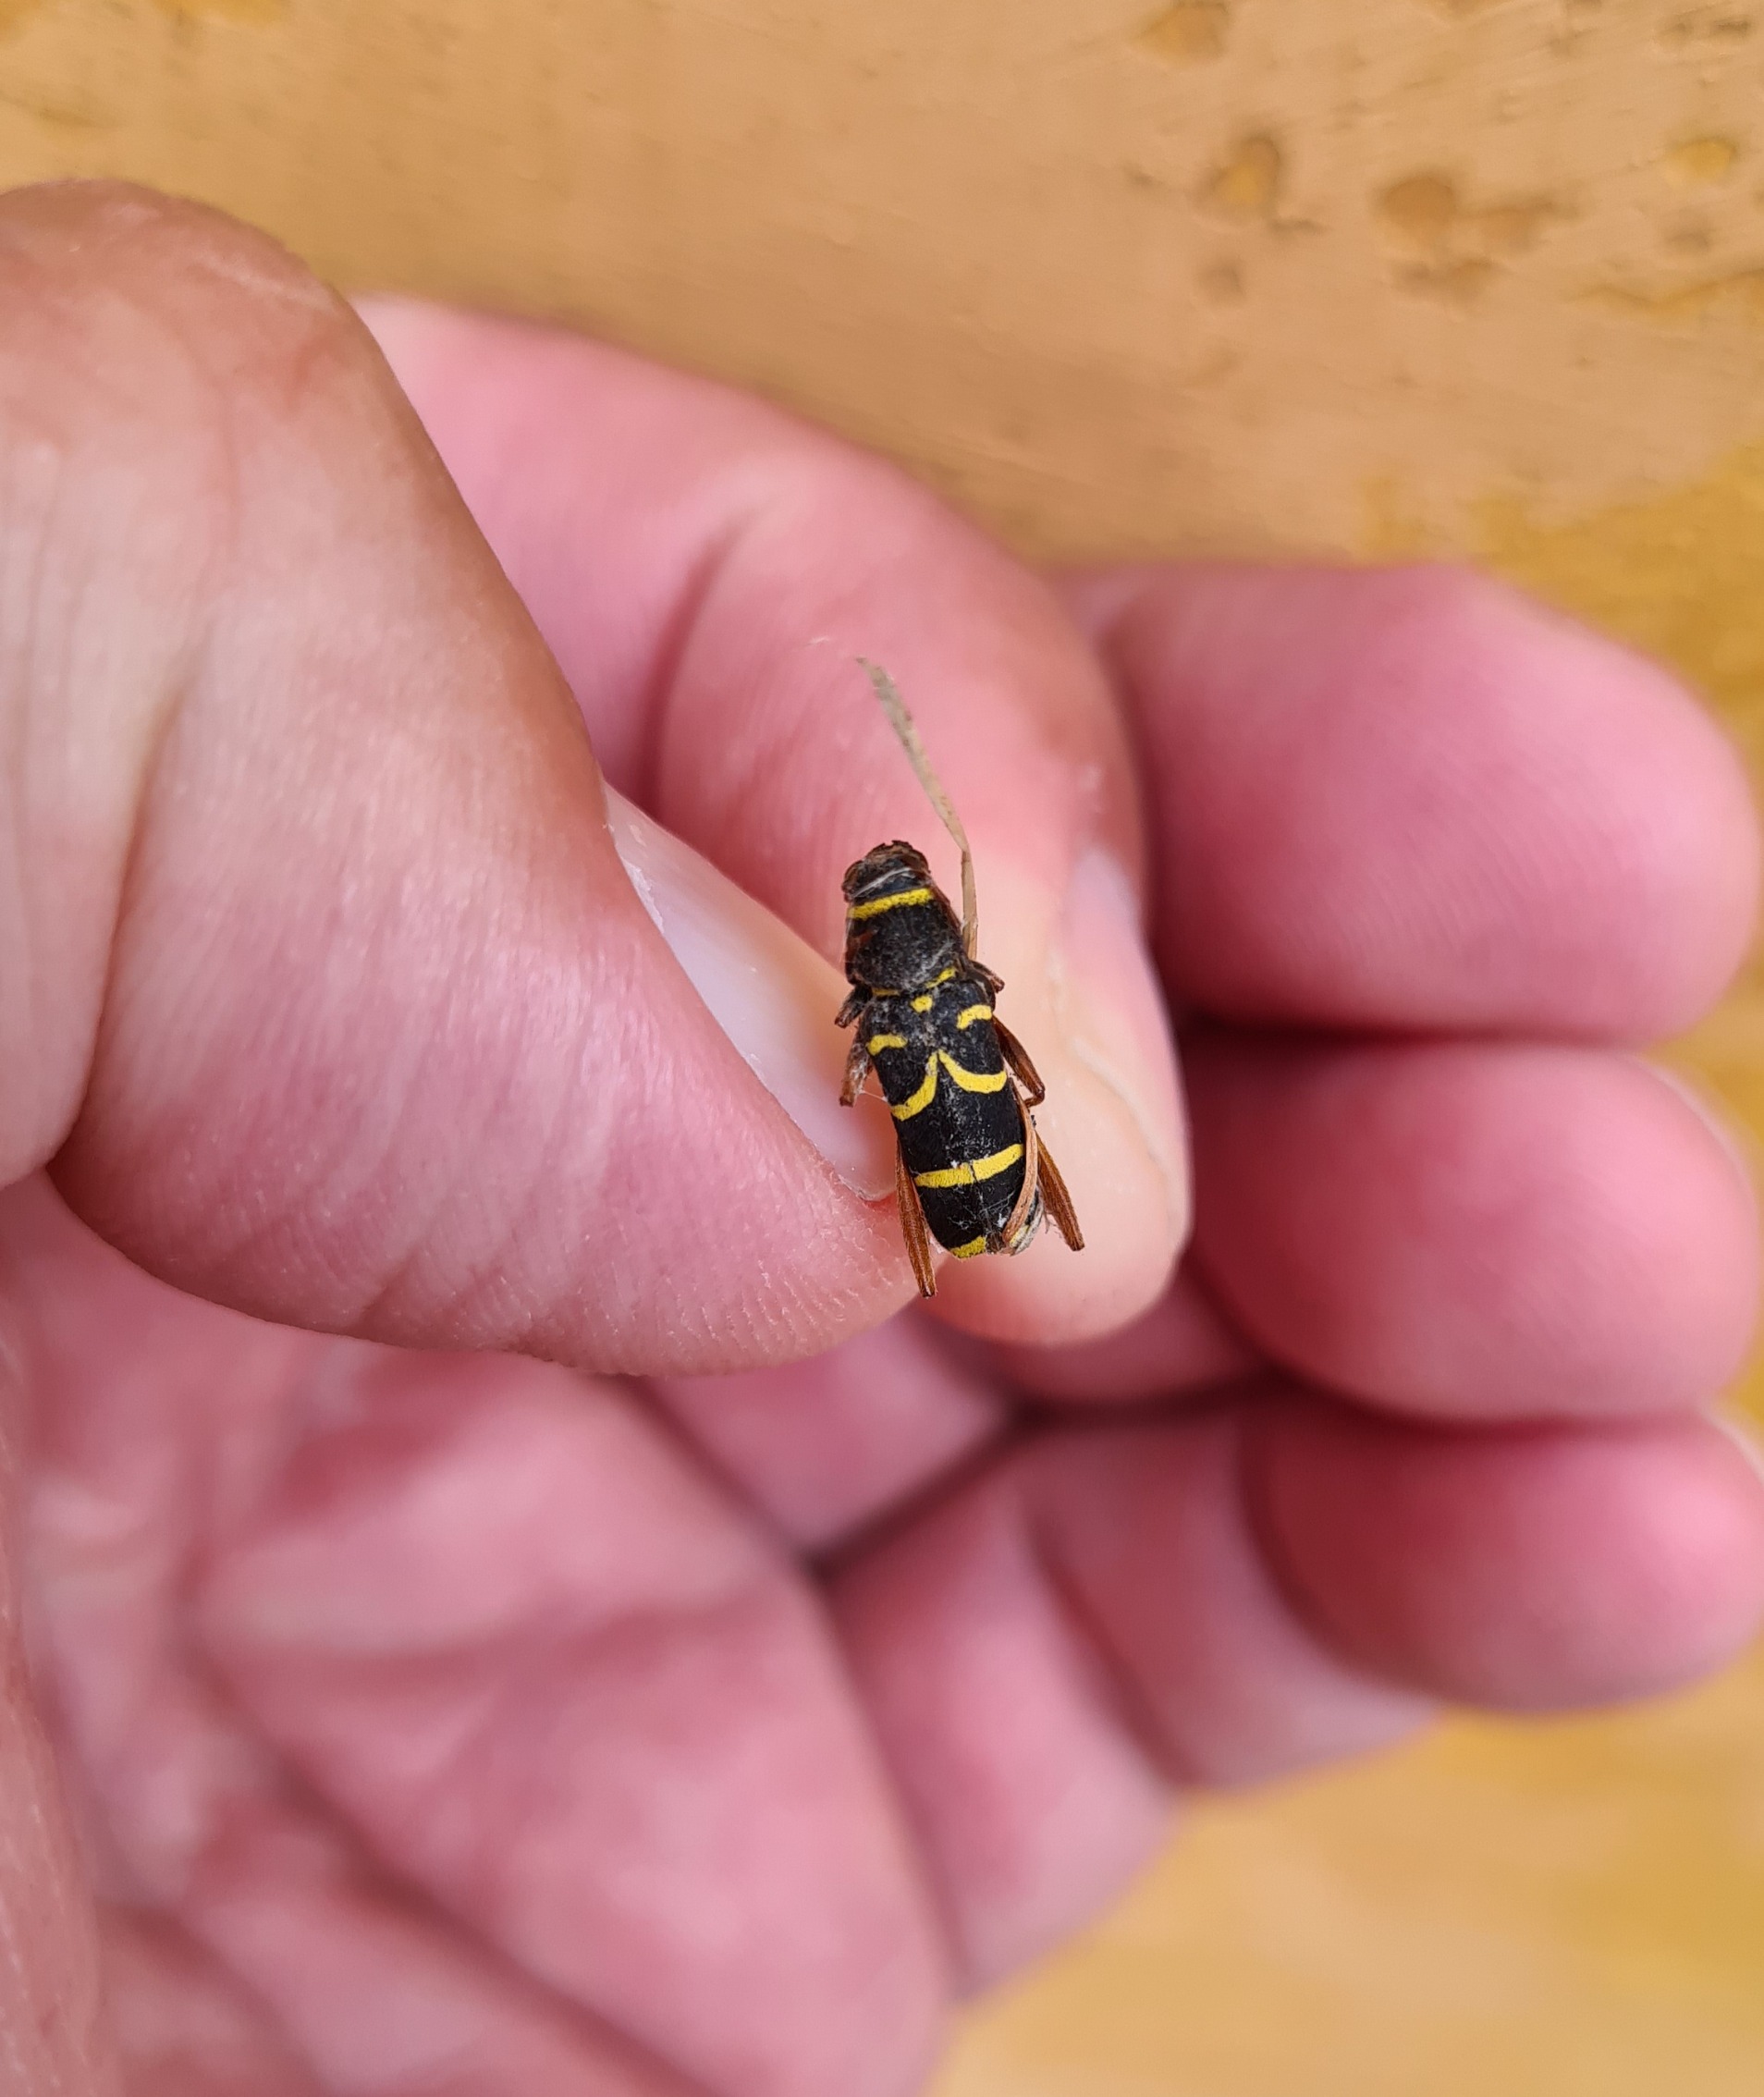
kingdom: Animalia
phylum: Arthropoda
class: Insecta
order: Coleoptera
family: Cerambycidae
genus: Clytus
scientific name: Clytus arietis
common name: Lille hvepsebuk
